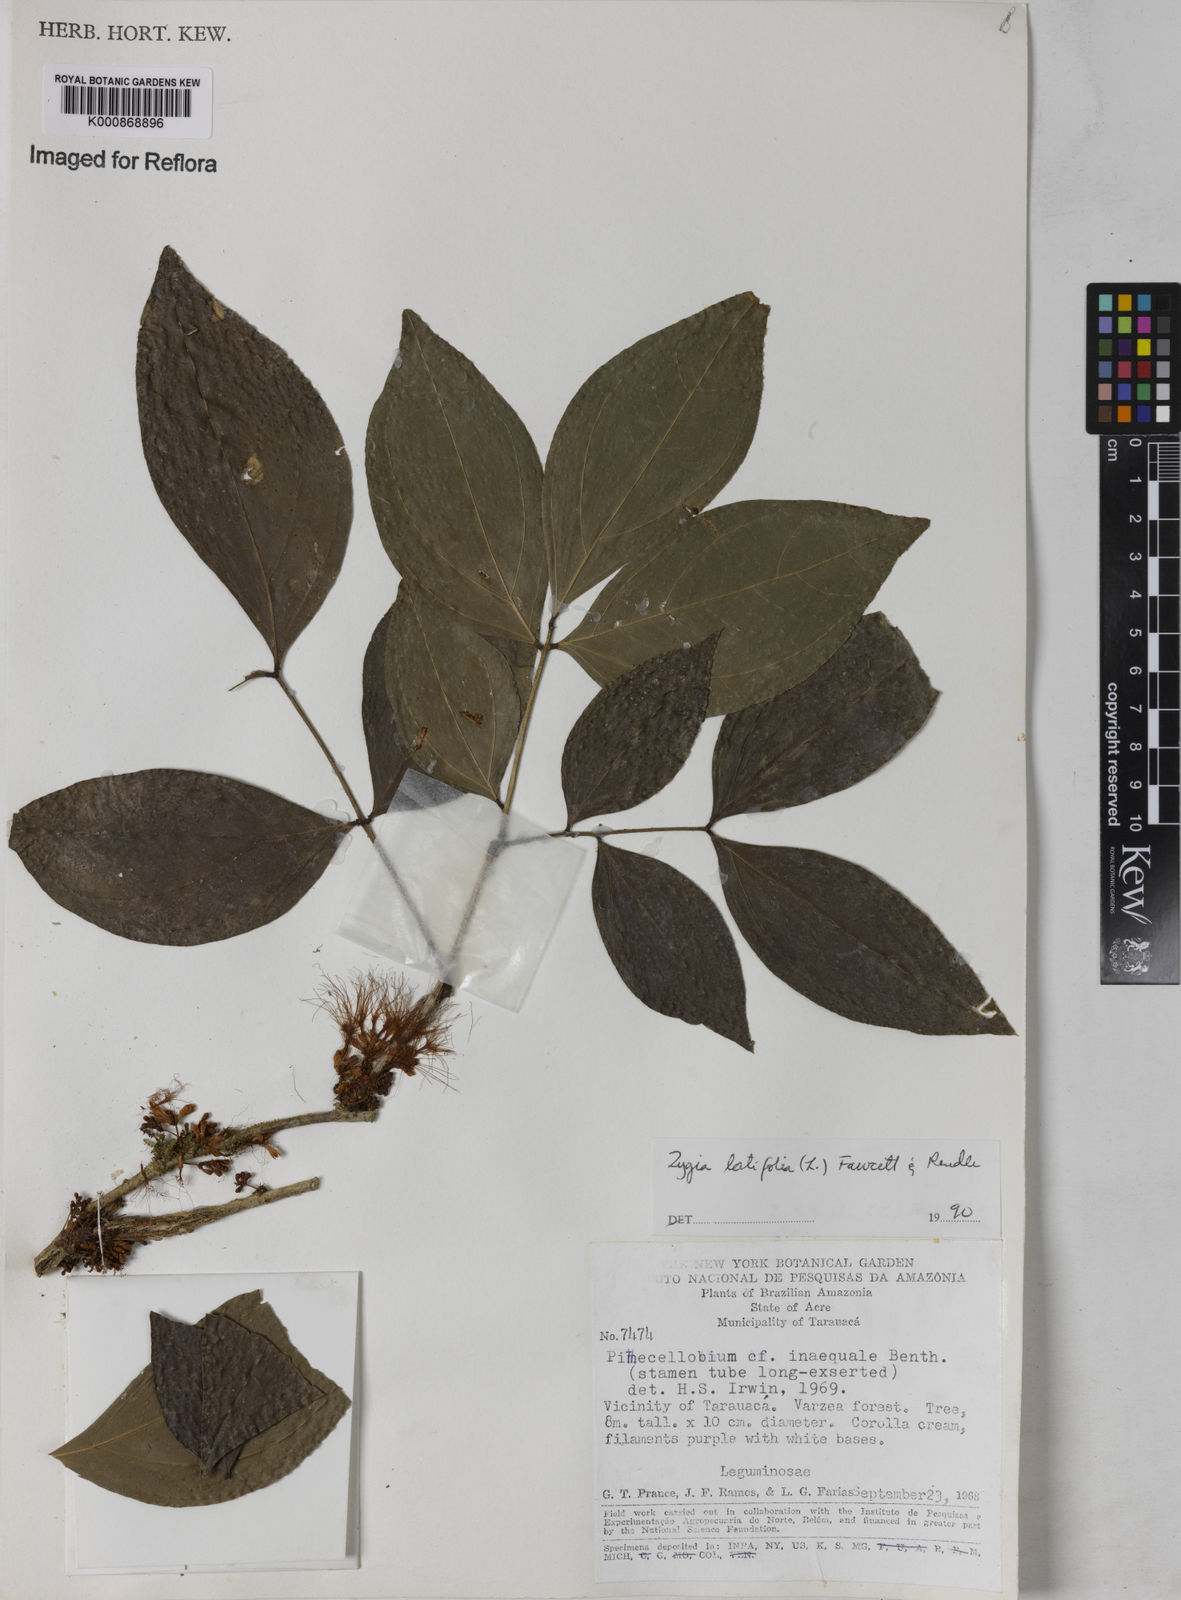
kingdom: Plantae
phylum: Tracheophyta
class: Magnoliopsida
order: Fabales
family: Fabaceae
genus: Zygia
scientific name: Zygia latifolia
